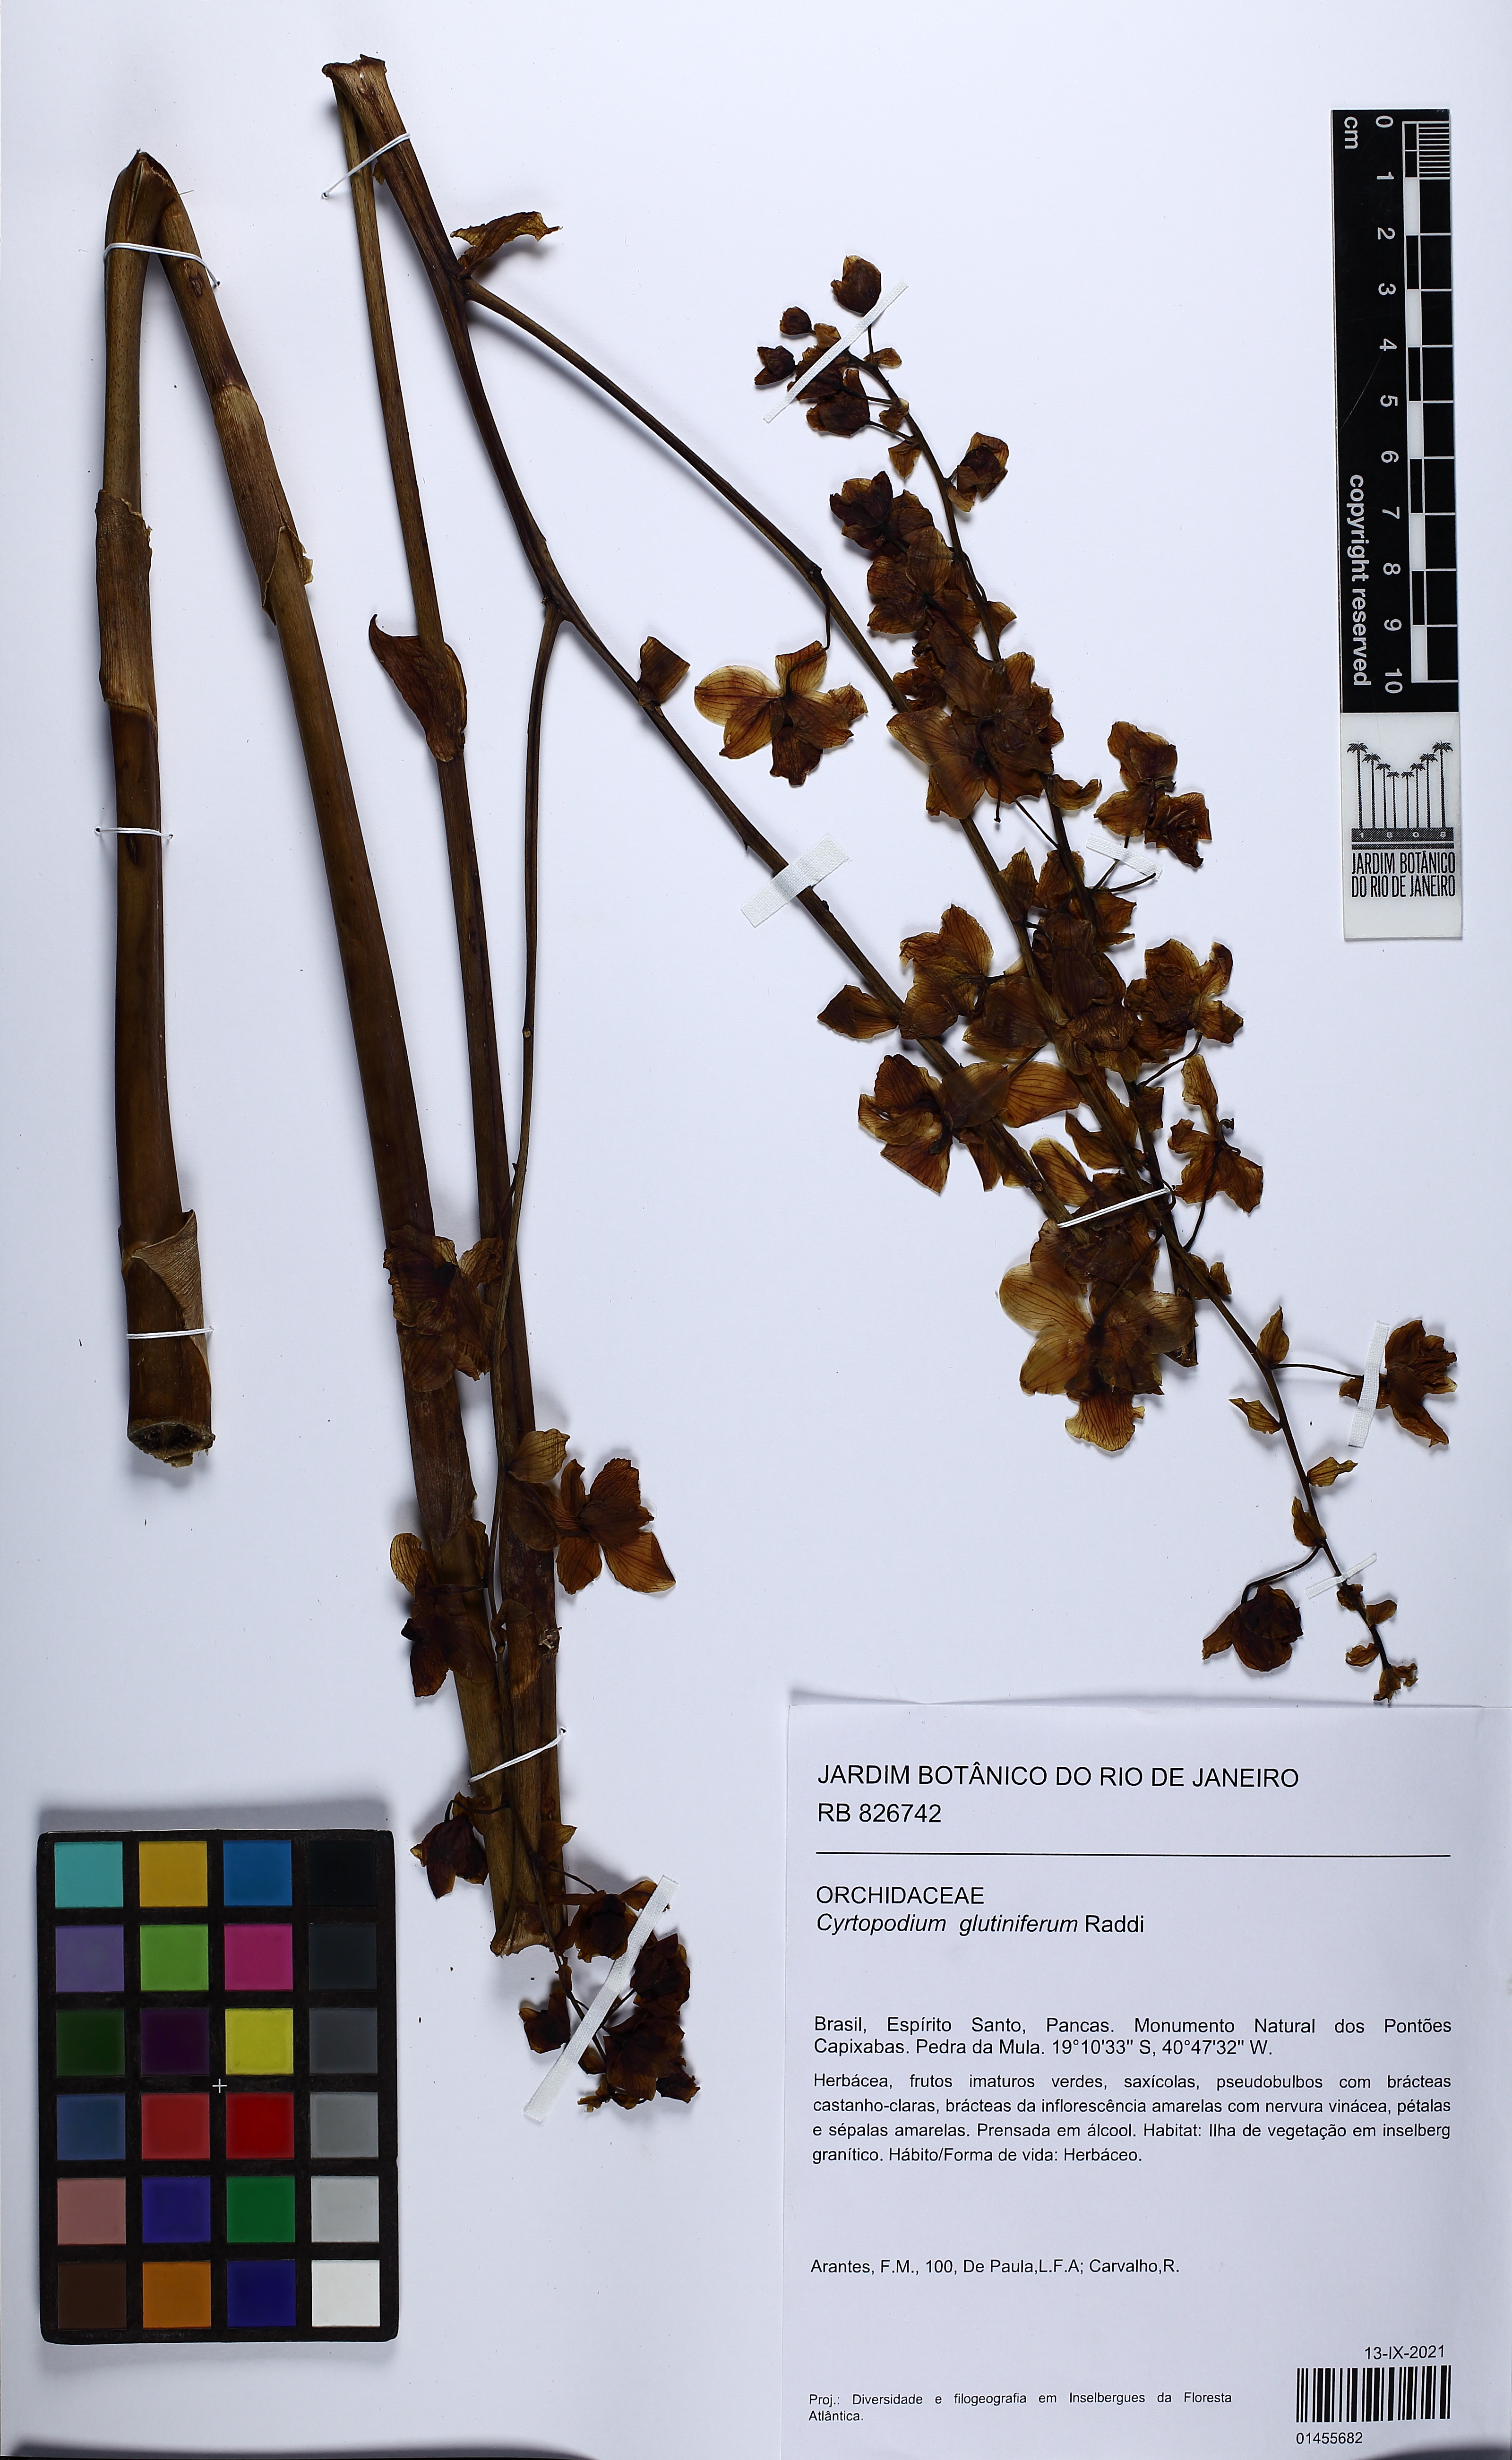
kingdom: Plantae
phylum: Tracheophyta
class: Liliopsida
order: Asparagales
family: Orchidaceae
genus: Cyrtopodium
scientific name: Cyrtopodium glutiniferum
